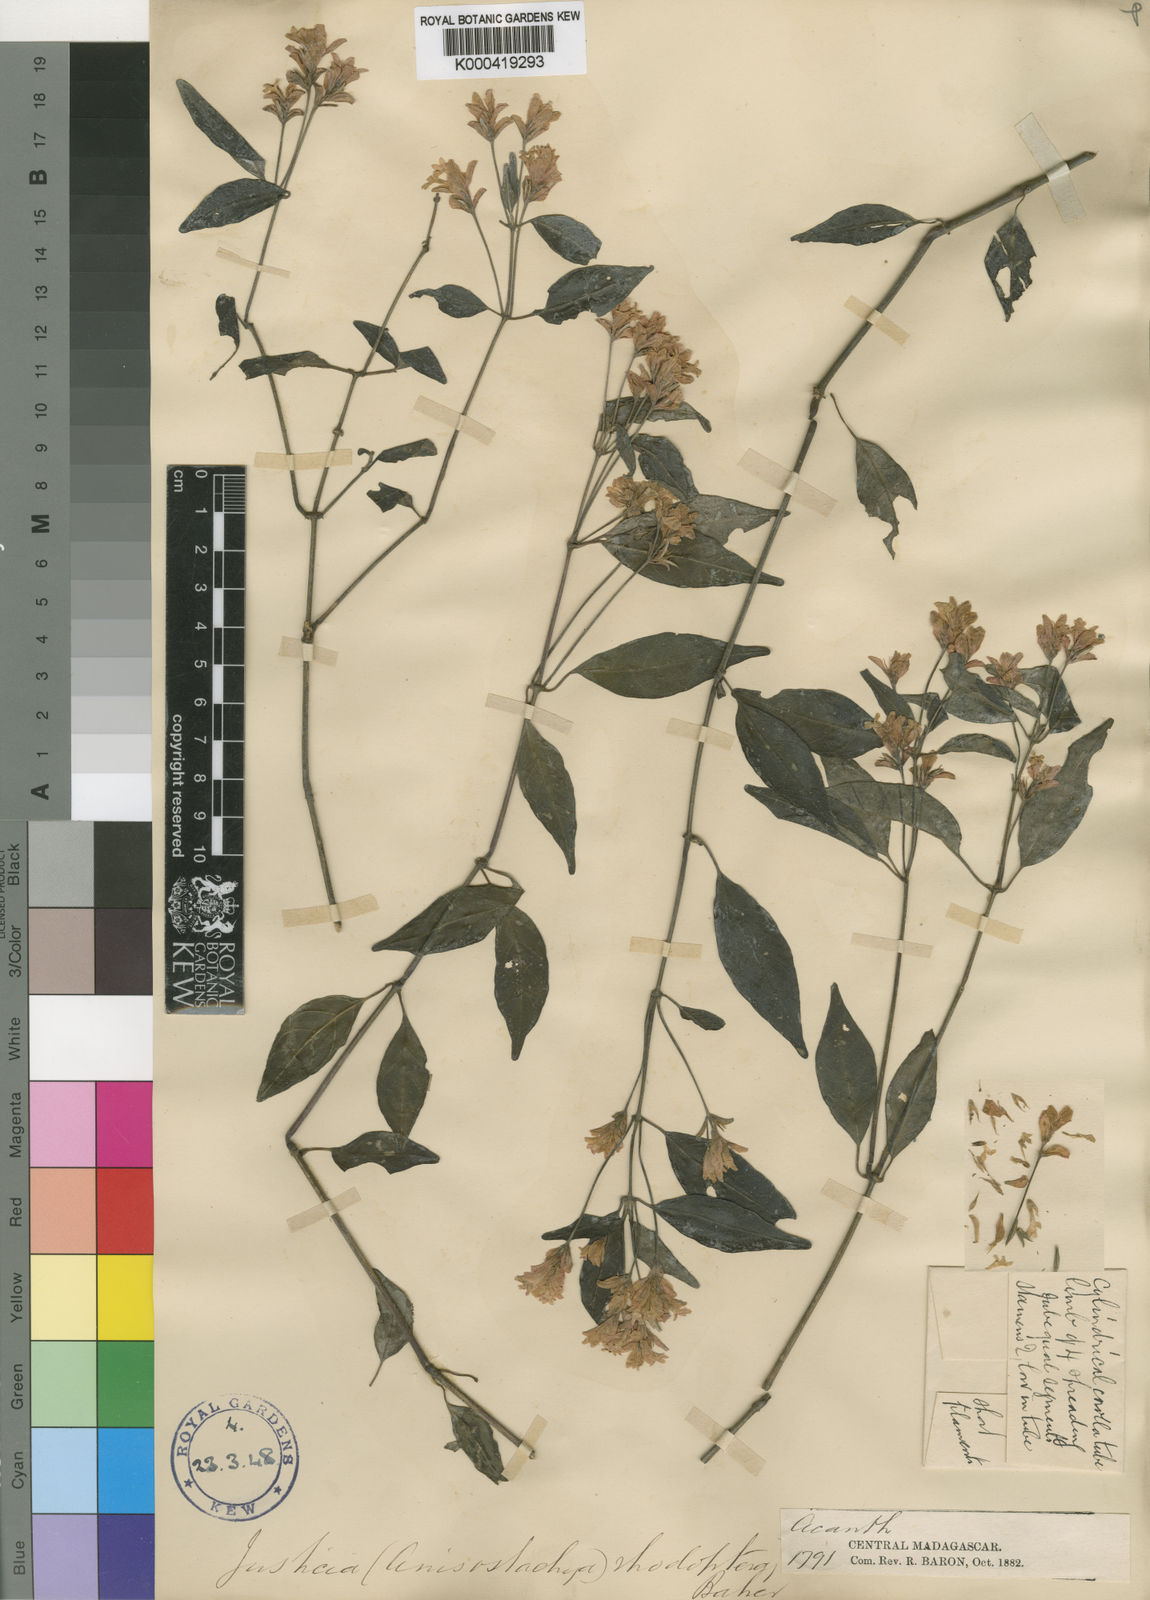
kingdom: Plantae
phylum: Tracheophyta
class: Magnoliopsida
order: Lamiales
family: Acanthaceae
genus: Justicia
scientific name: Justicia rhodoptera
